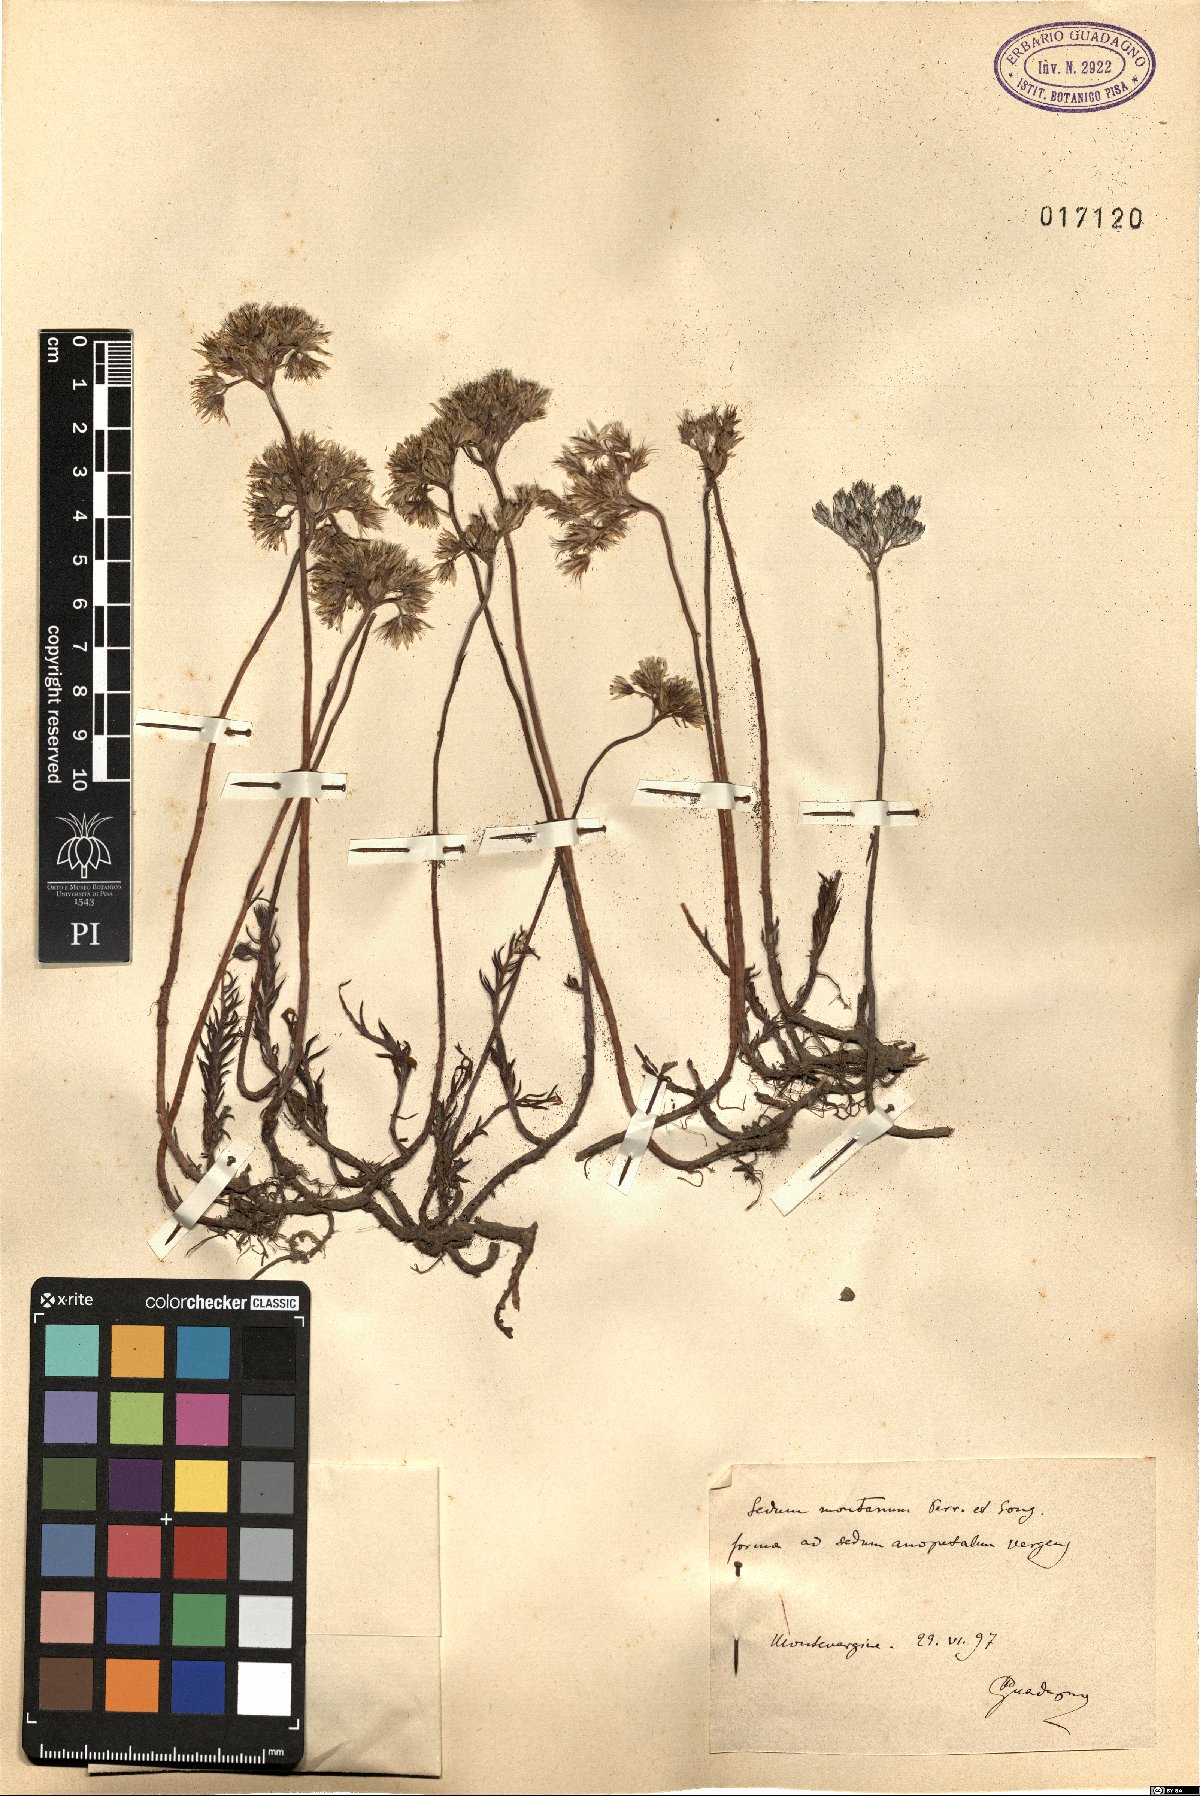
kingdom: Plantae
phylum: Tracheophyta
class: Magnoliopsida
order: Saxifragales
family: Crassulaceae
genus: Petrosedum
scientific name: Petrosedum montanum
